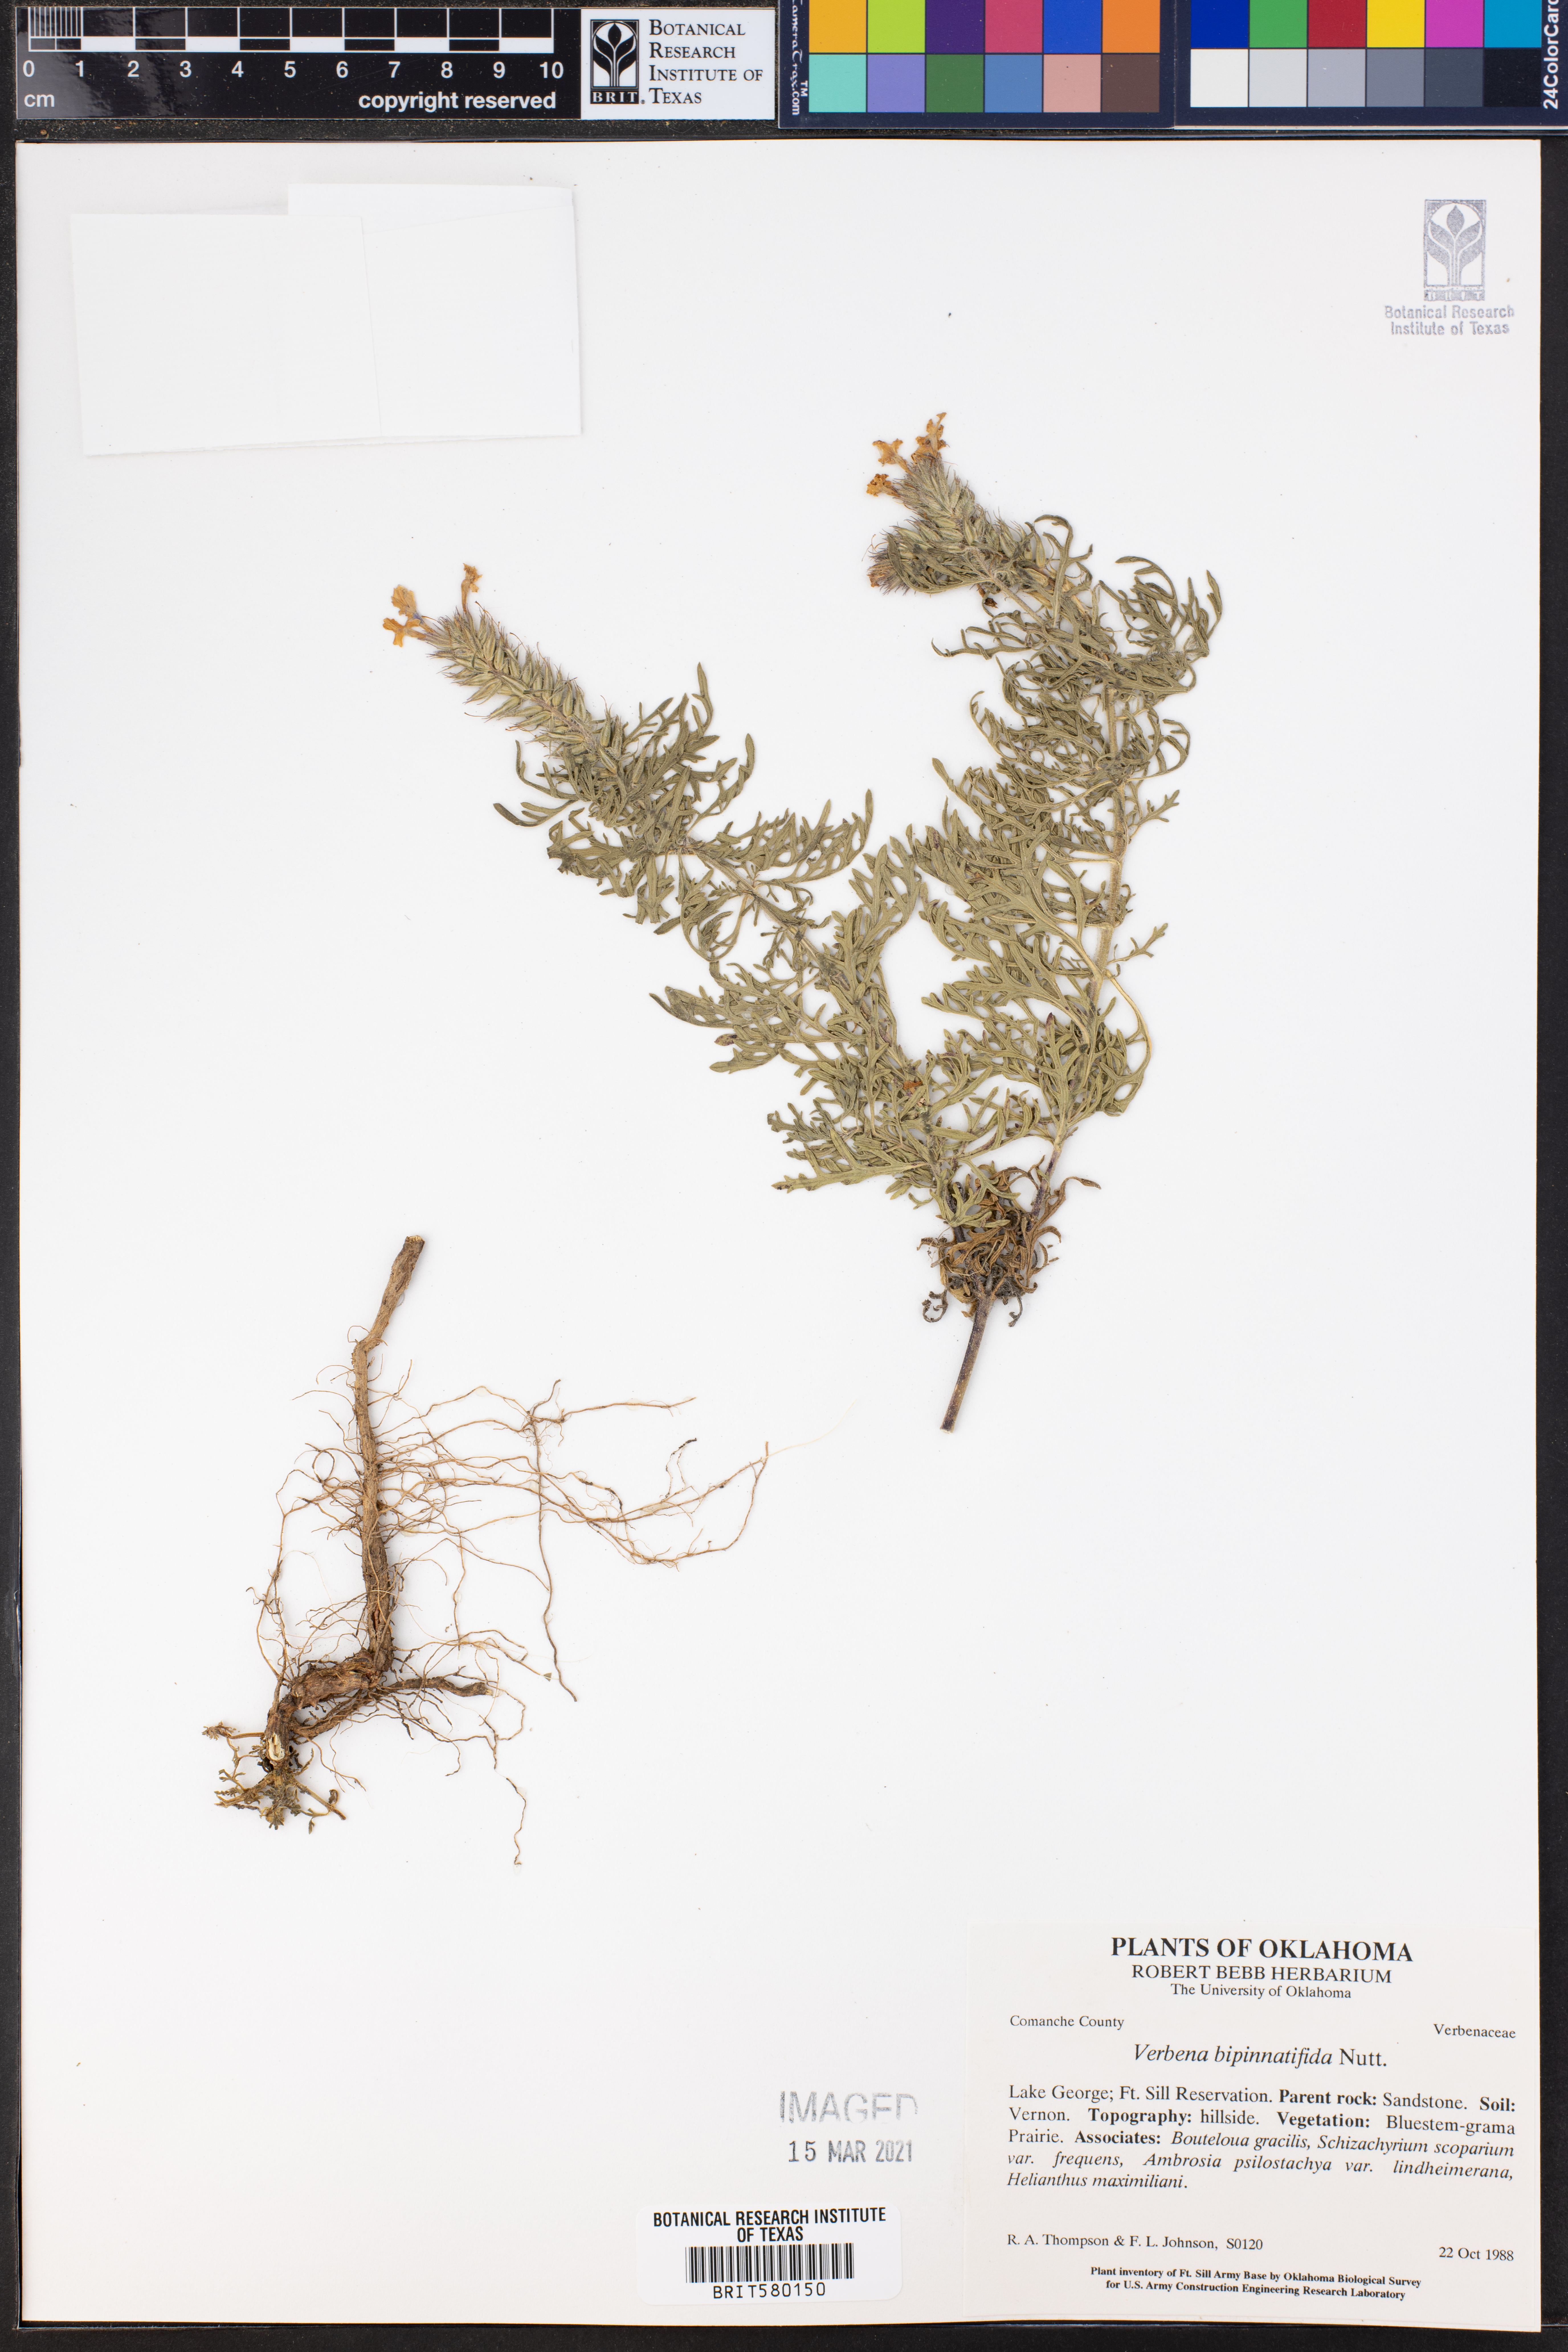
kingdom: Plantae
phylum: Tracheophyta
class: Magnoliopsida
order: Lamiales
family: Verbenaceae
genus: Verbena
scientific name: Verbena bipinnatifida
